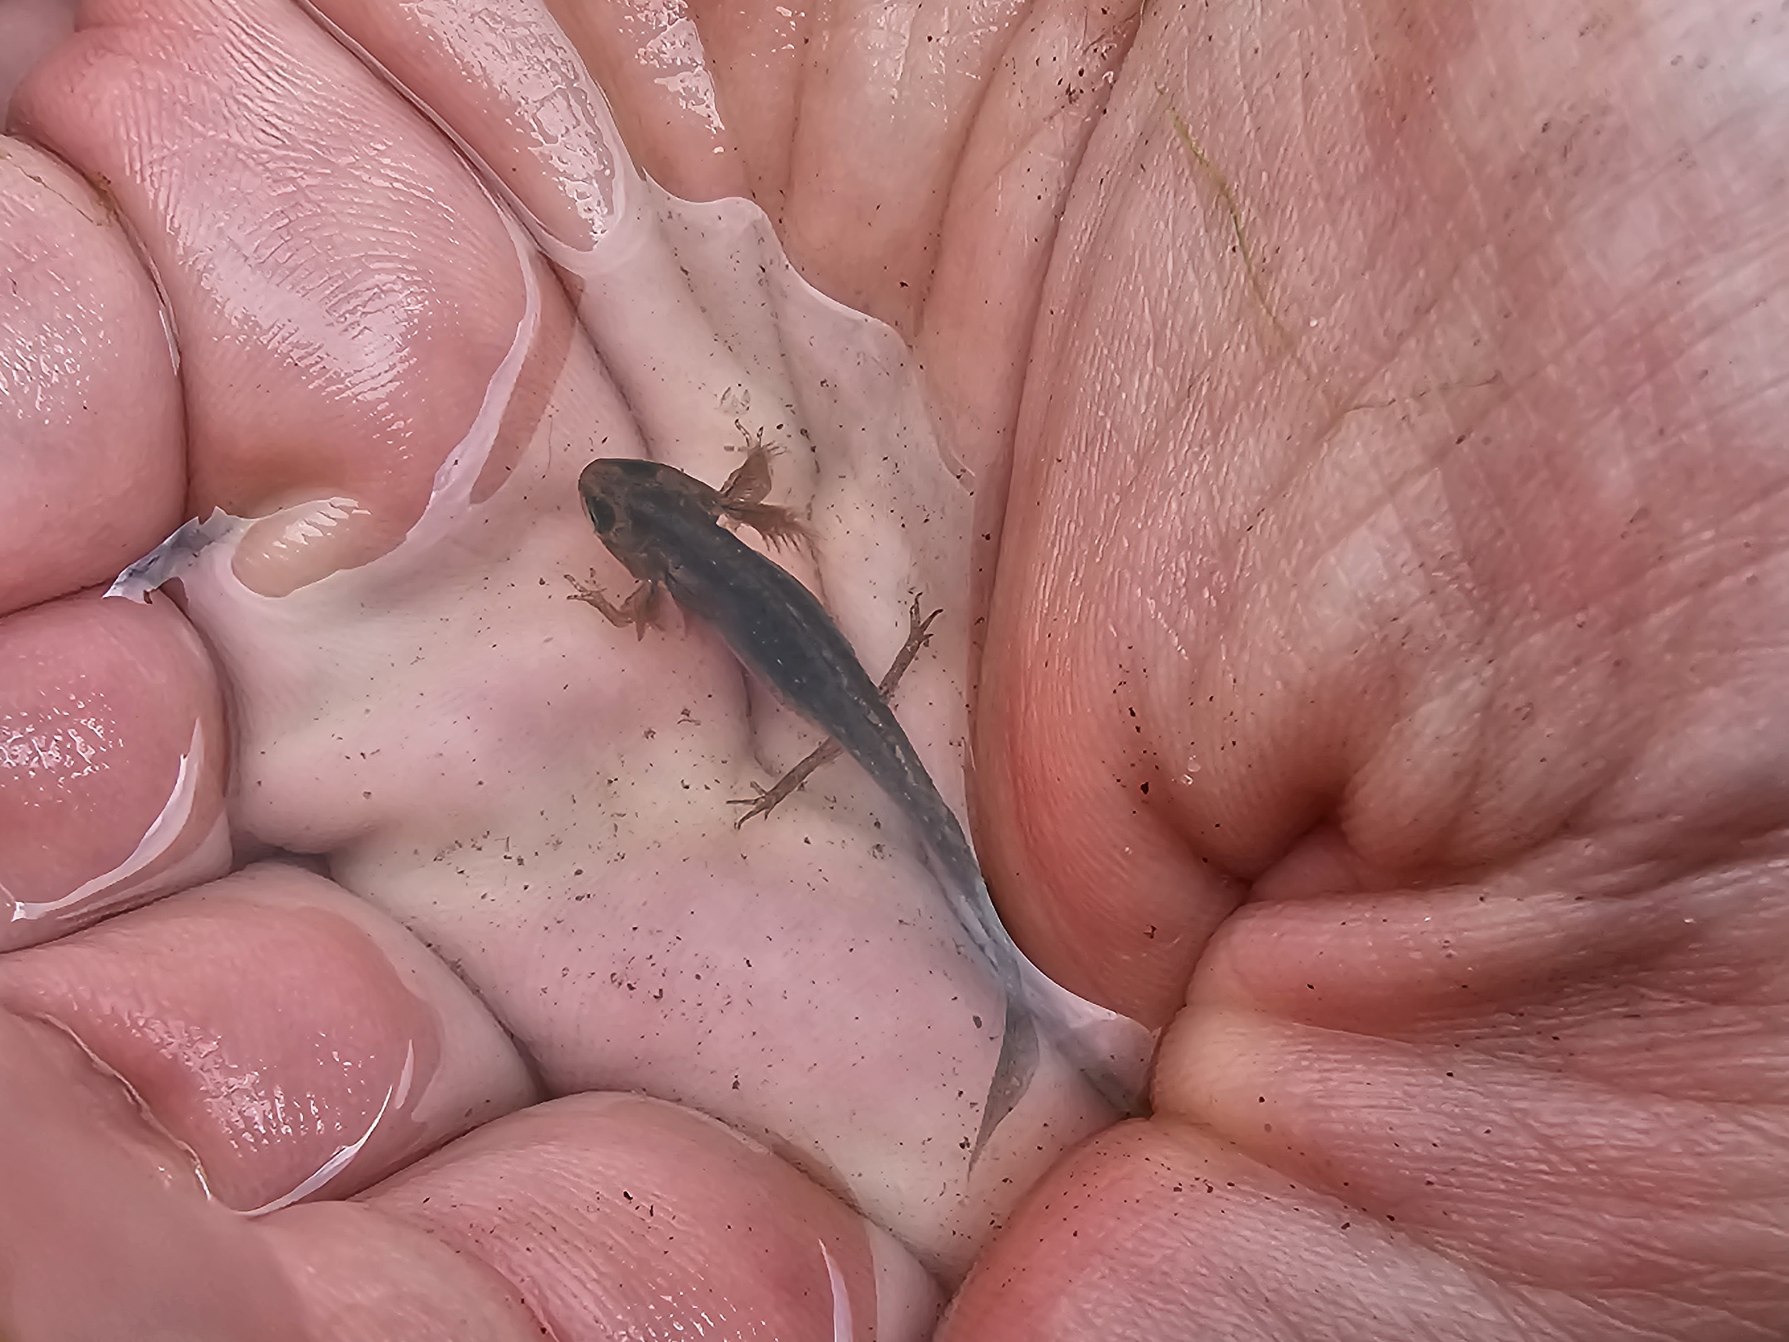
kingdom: Animalia
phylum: Chordata
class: Amphibia
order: Caudata
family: Salamandridae
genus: Lissotriton
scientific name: Lissotriton vulgaris
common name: Lille vandsalamander
